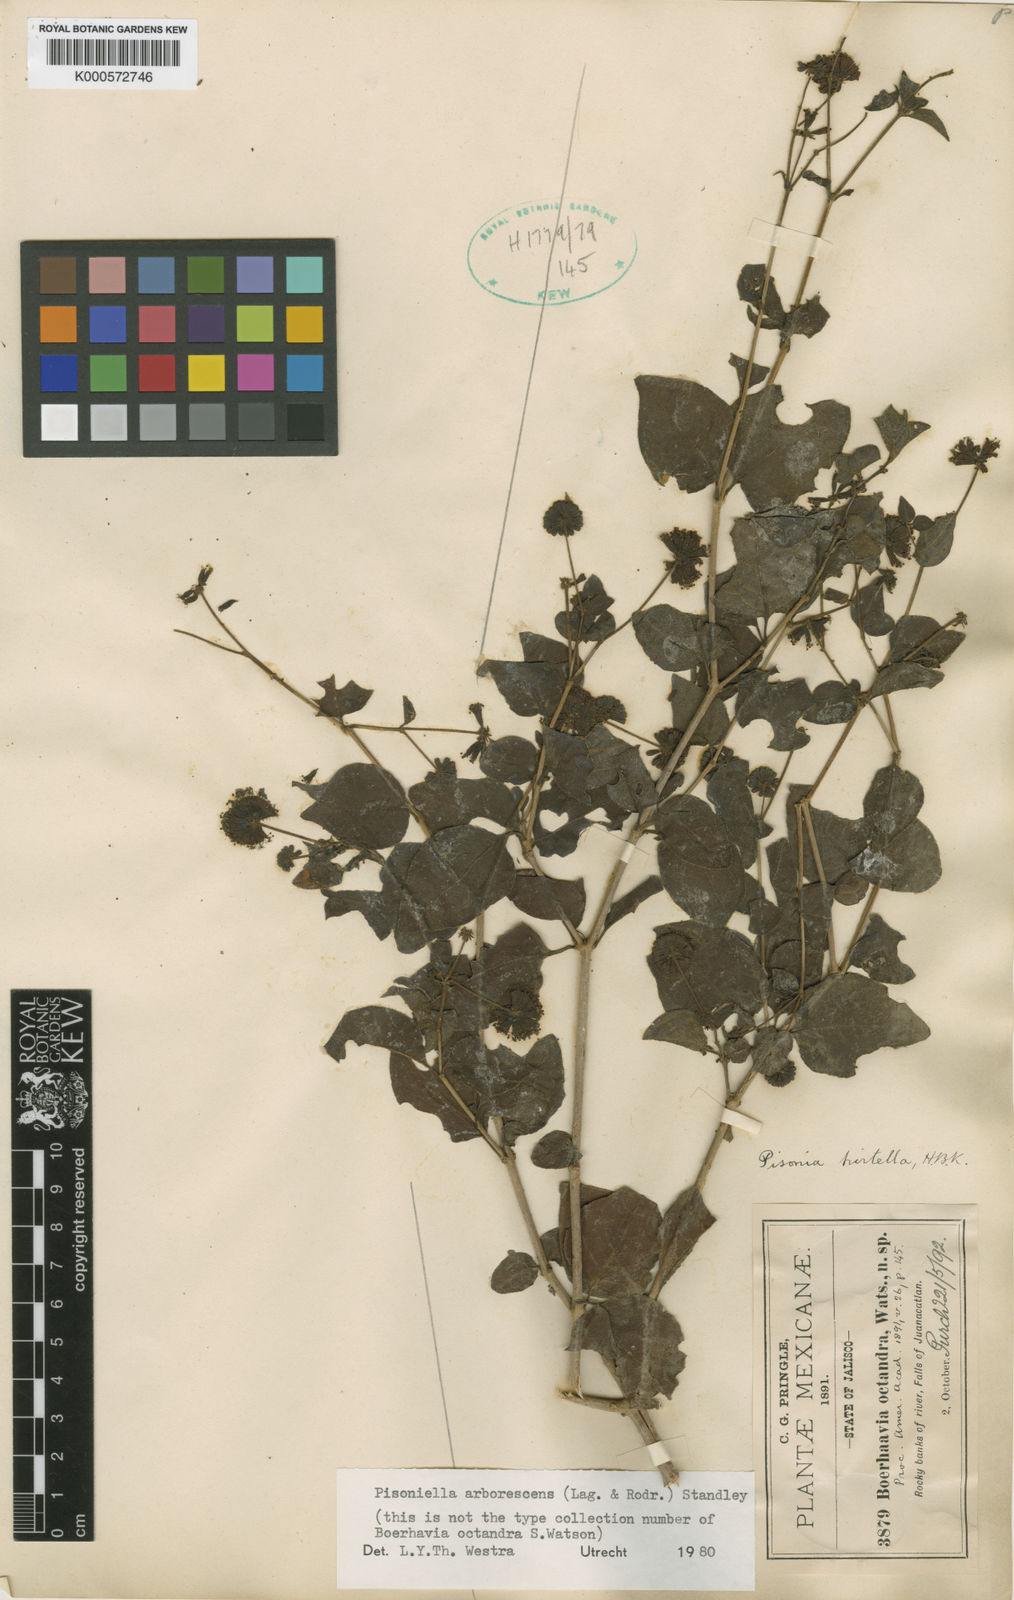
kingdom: Plantae
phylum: Tracheophyta
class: Magnoliopsida
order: Caryophyllales
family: Nyctaginaceae
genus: Pisoniella
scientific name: Pisoniella arborescens
